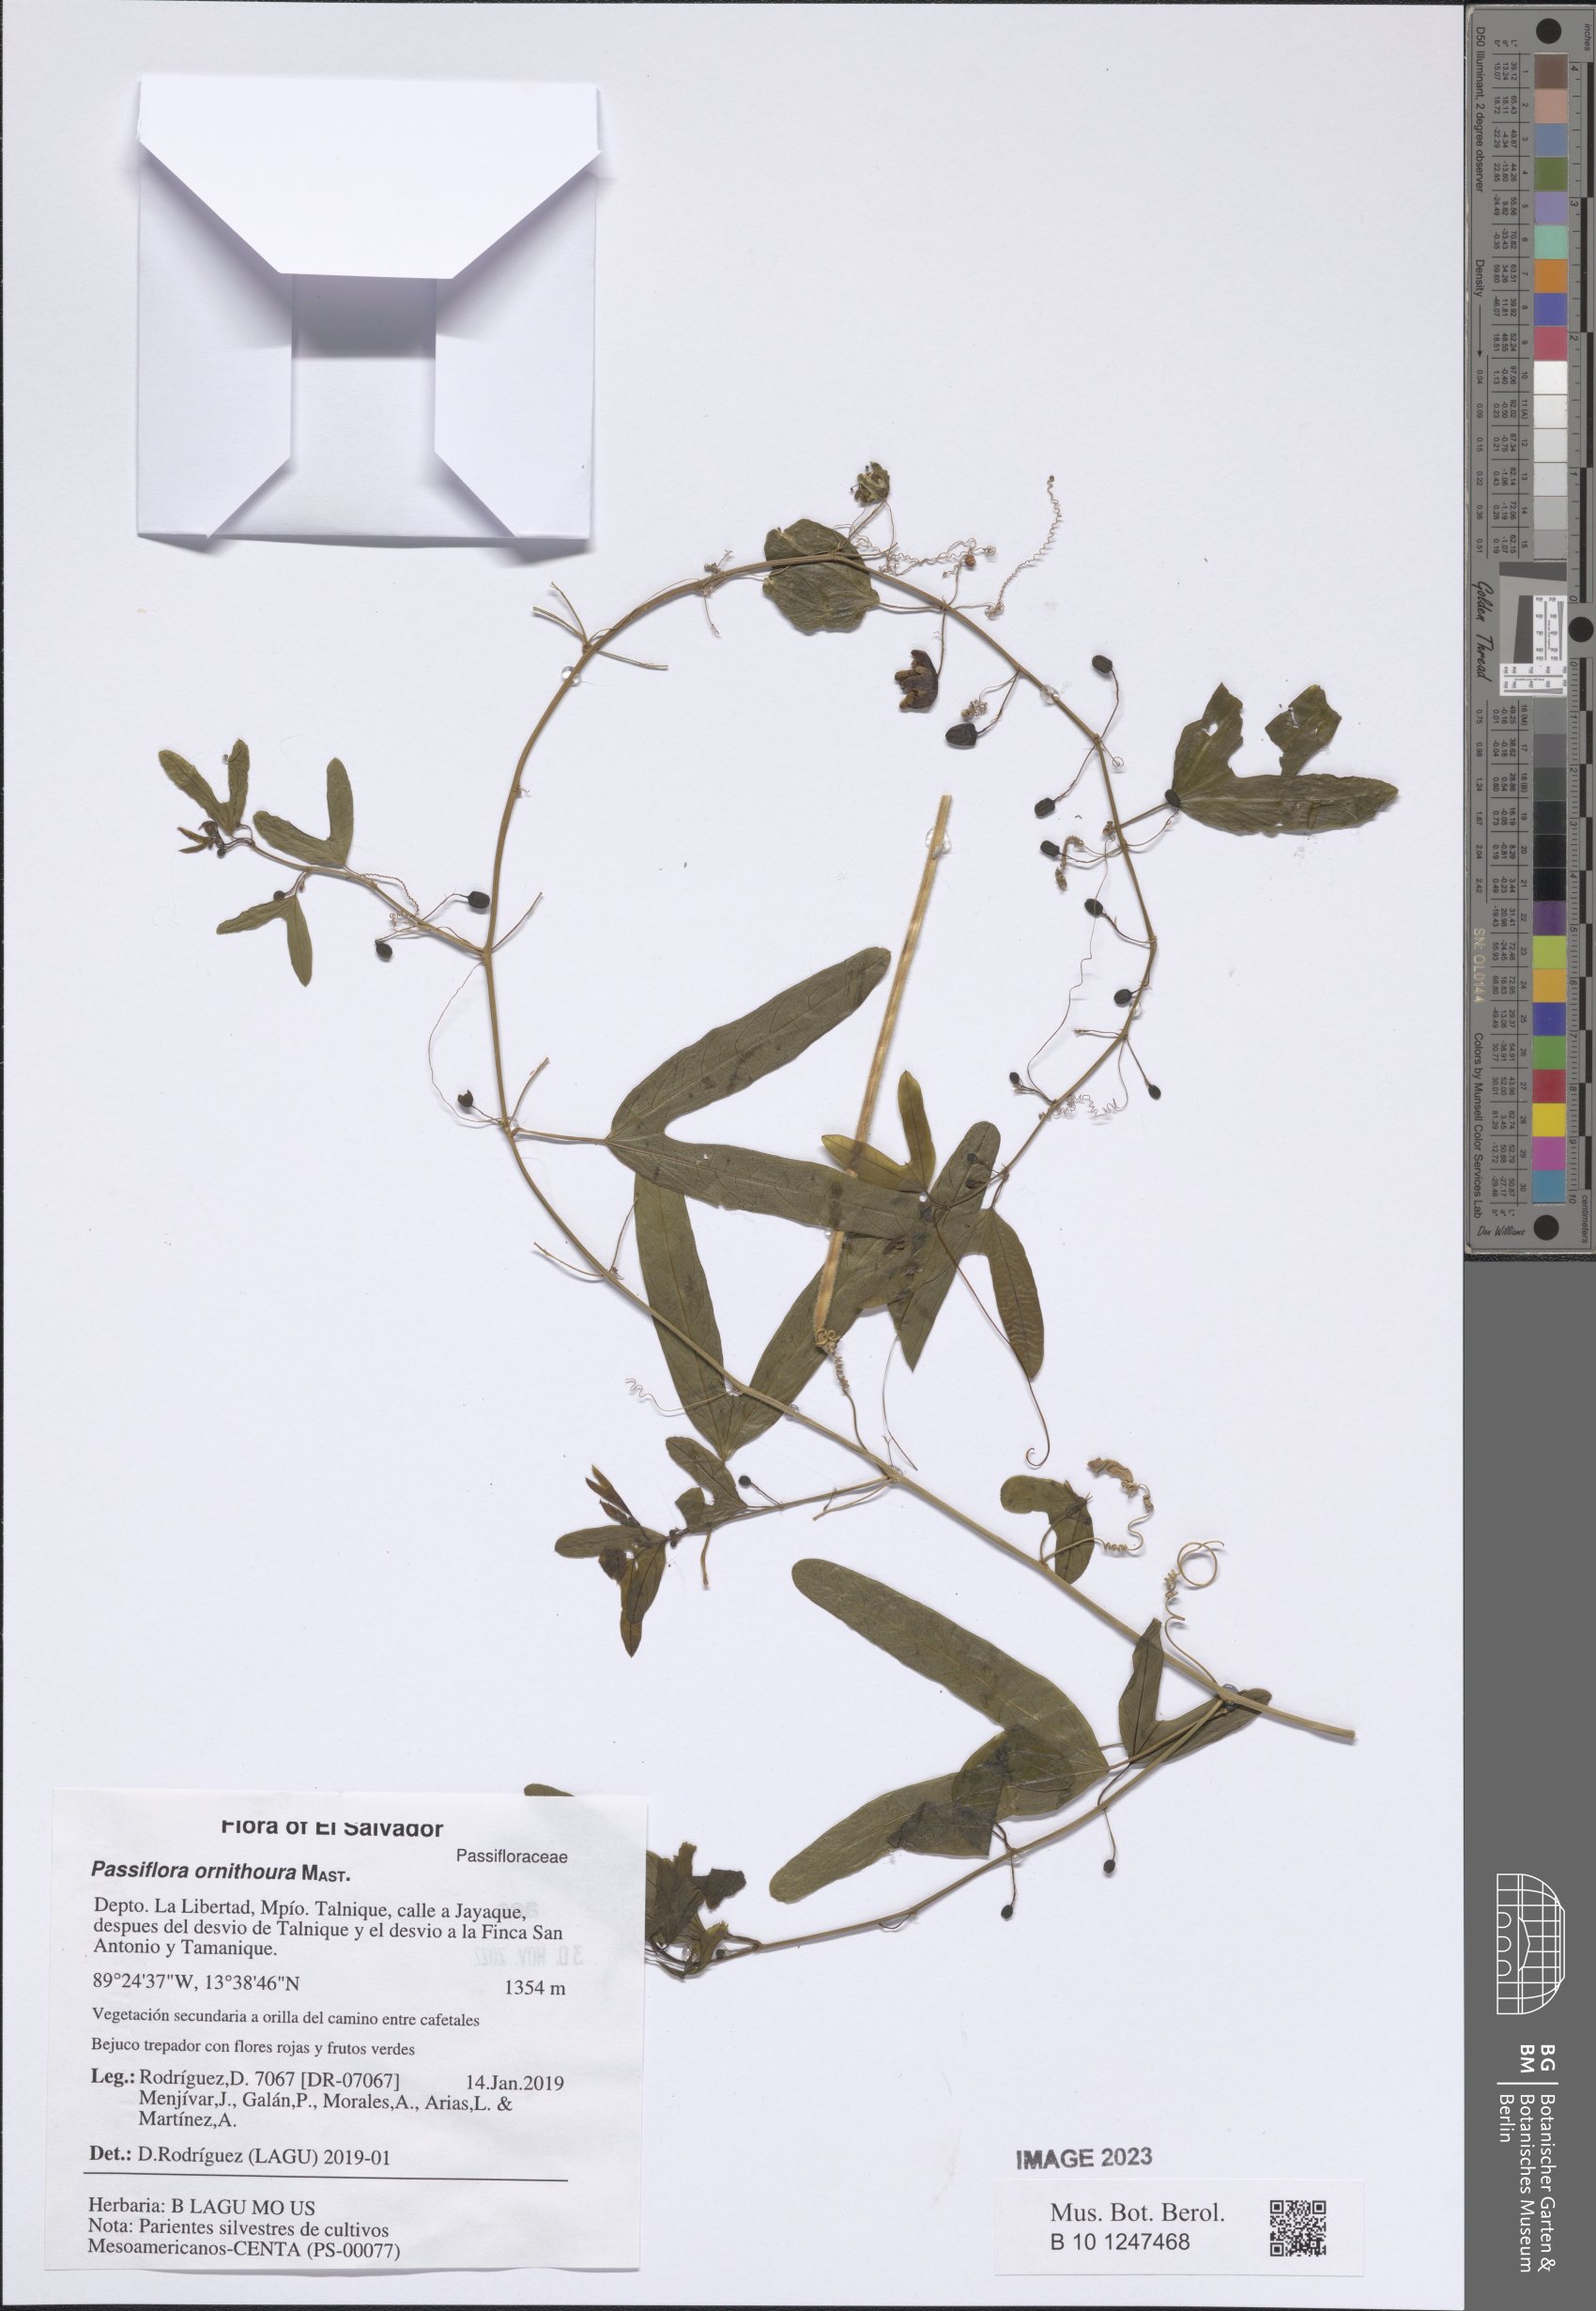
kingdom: Plantae
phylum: Tracheophyta
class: Magnoliopsida
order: Malpighiales
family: Passifloraceae
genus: Passiflora
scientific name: Passiflora ornithoura
